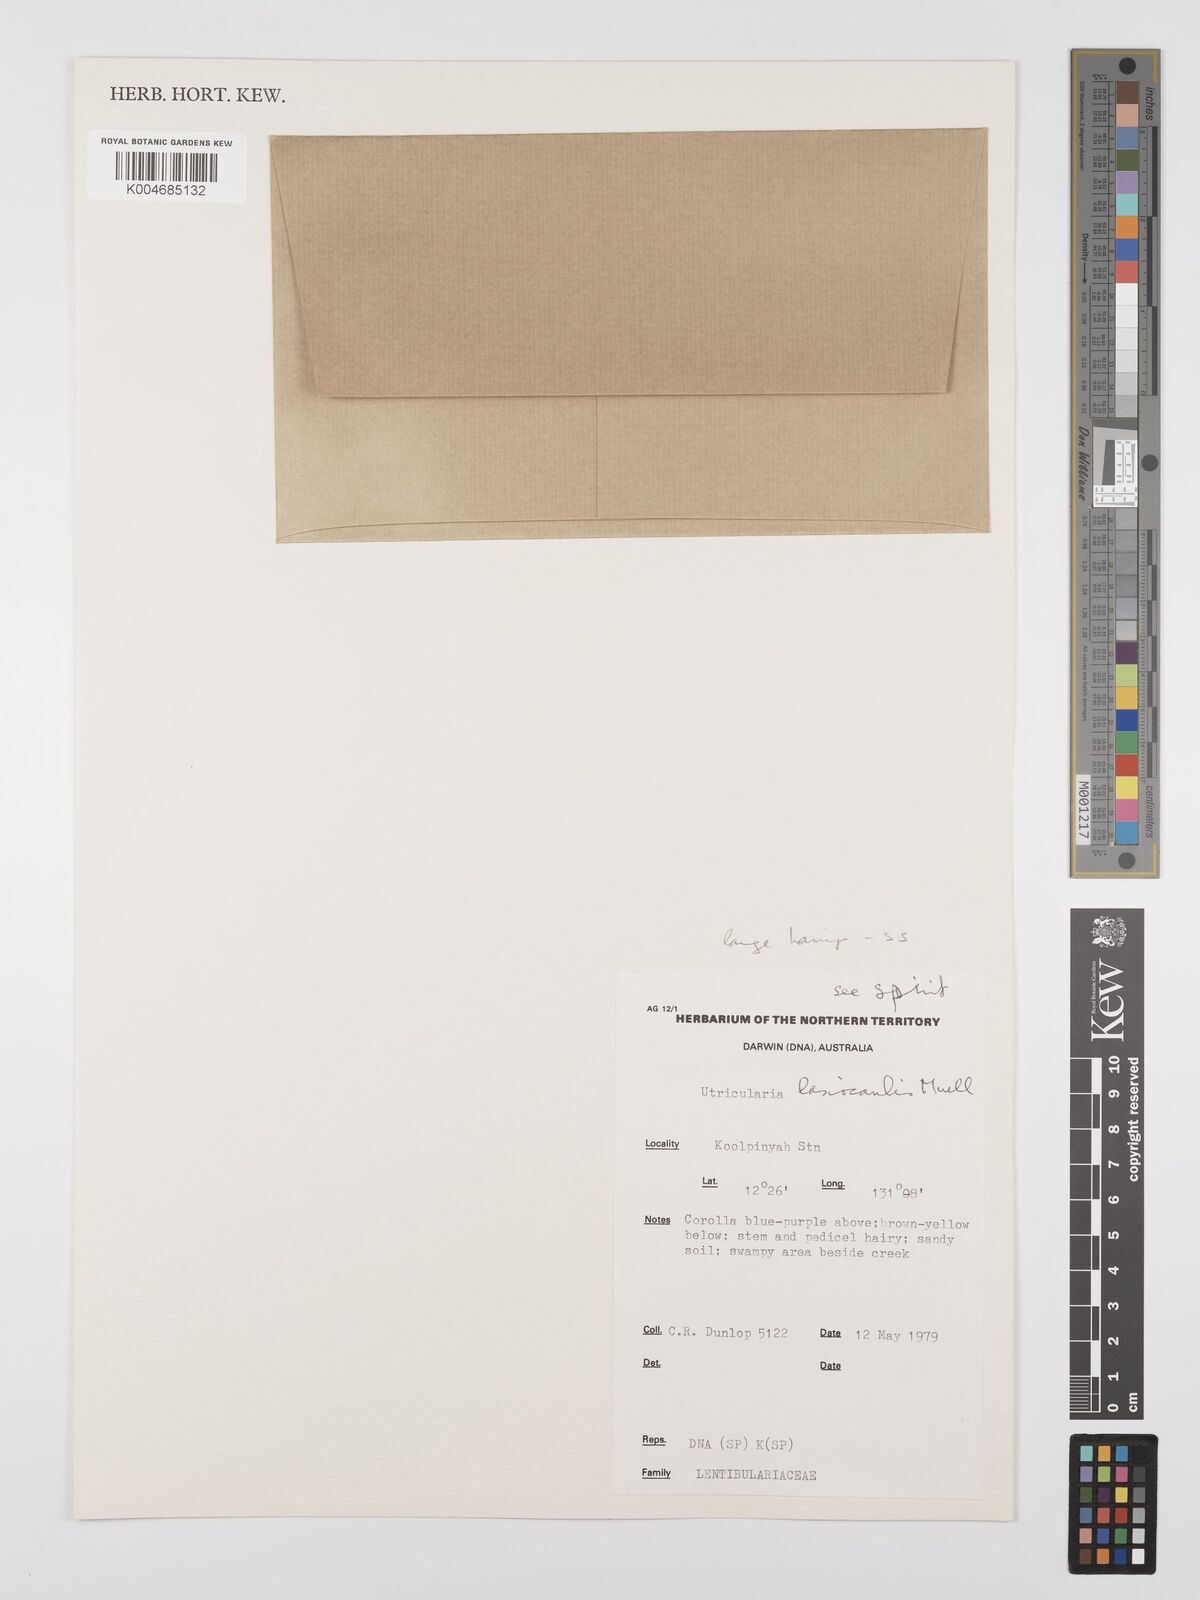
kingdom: Plantae
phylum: Tracheophyta
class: Magnoliopsida
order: Lamiales
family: Lentibulariaceae
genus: Utricularia
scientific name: Utricularia lasiocaulis
